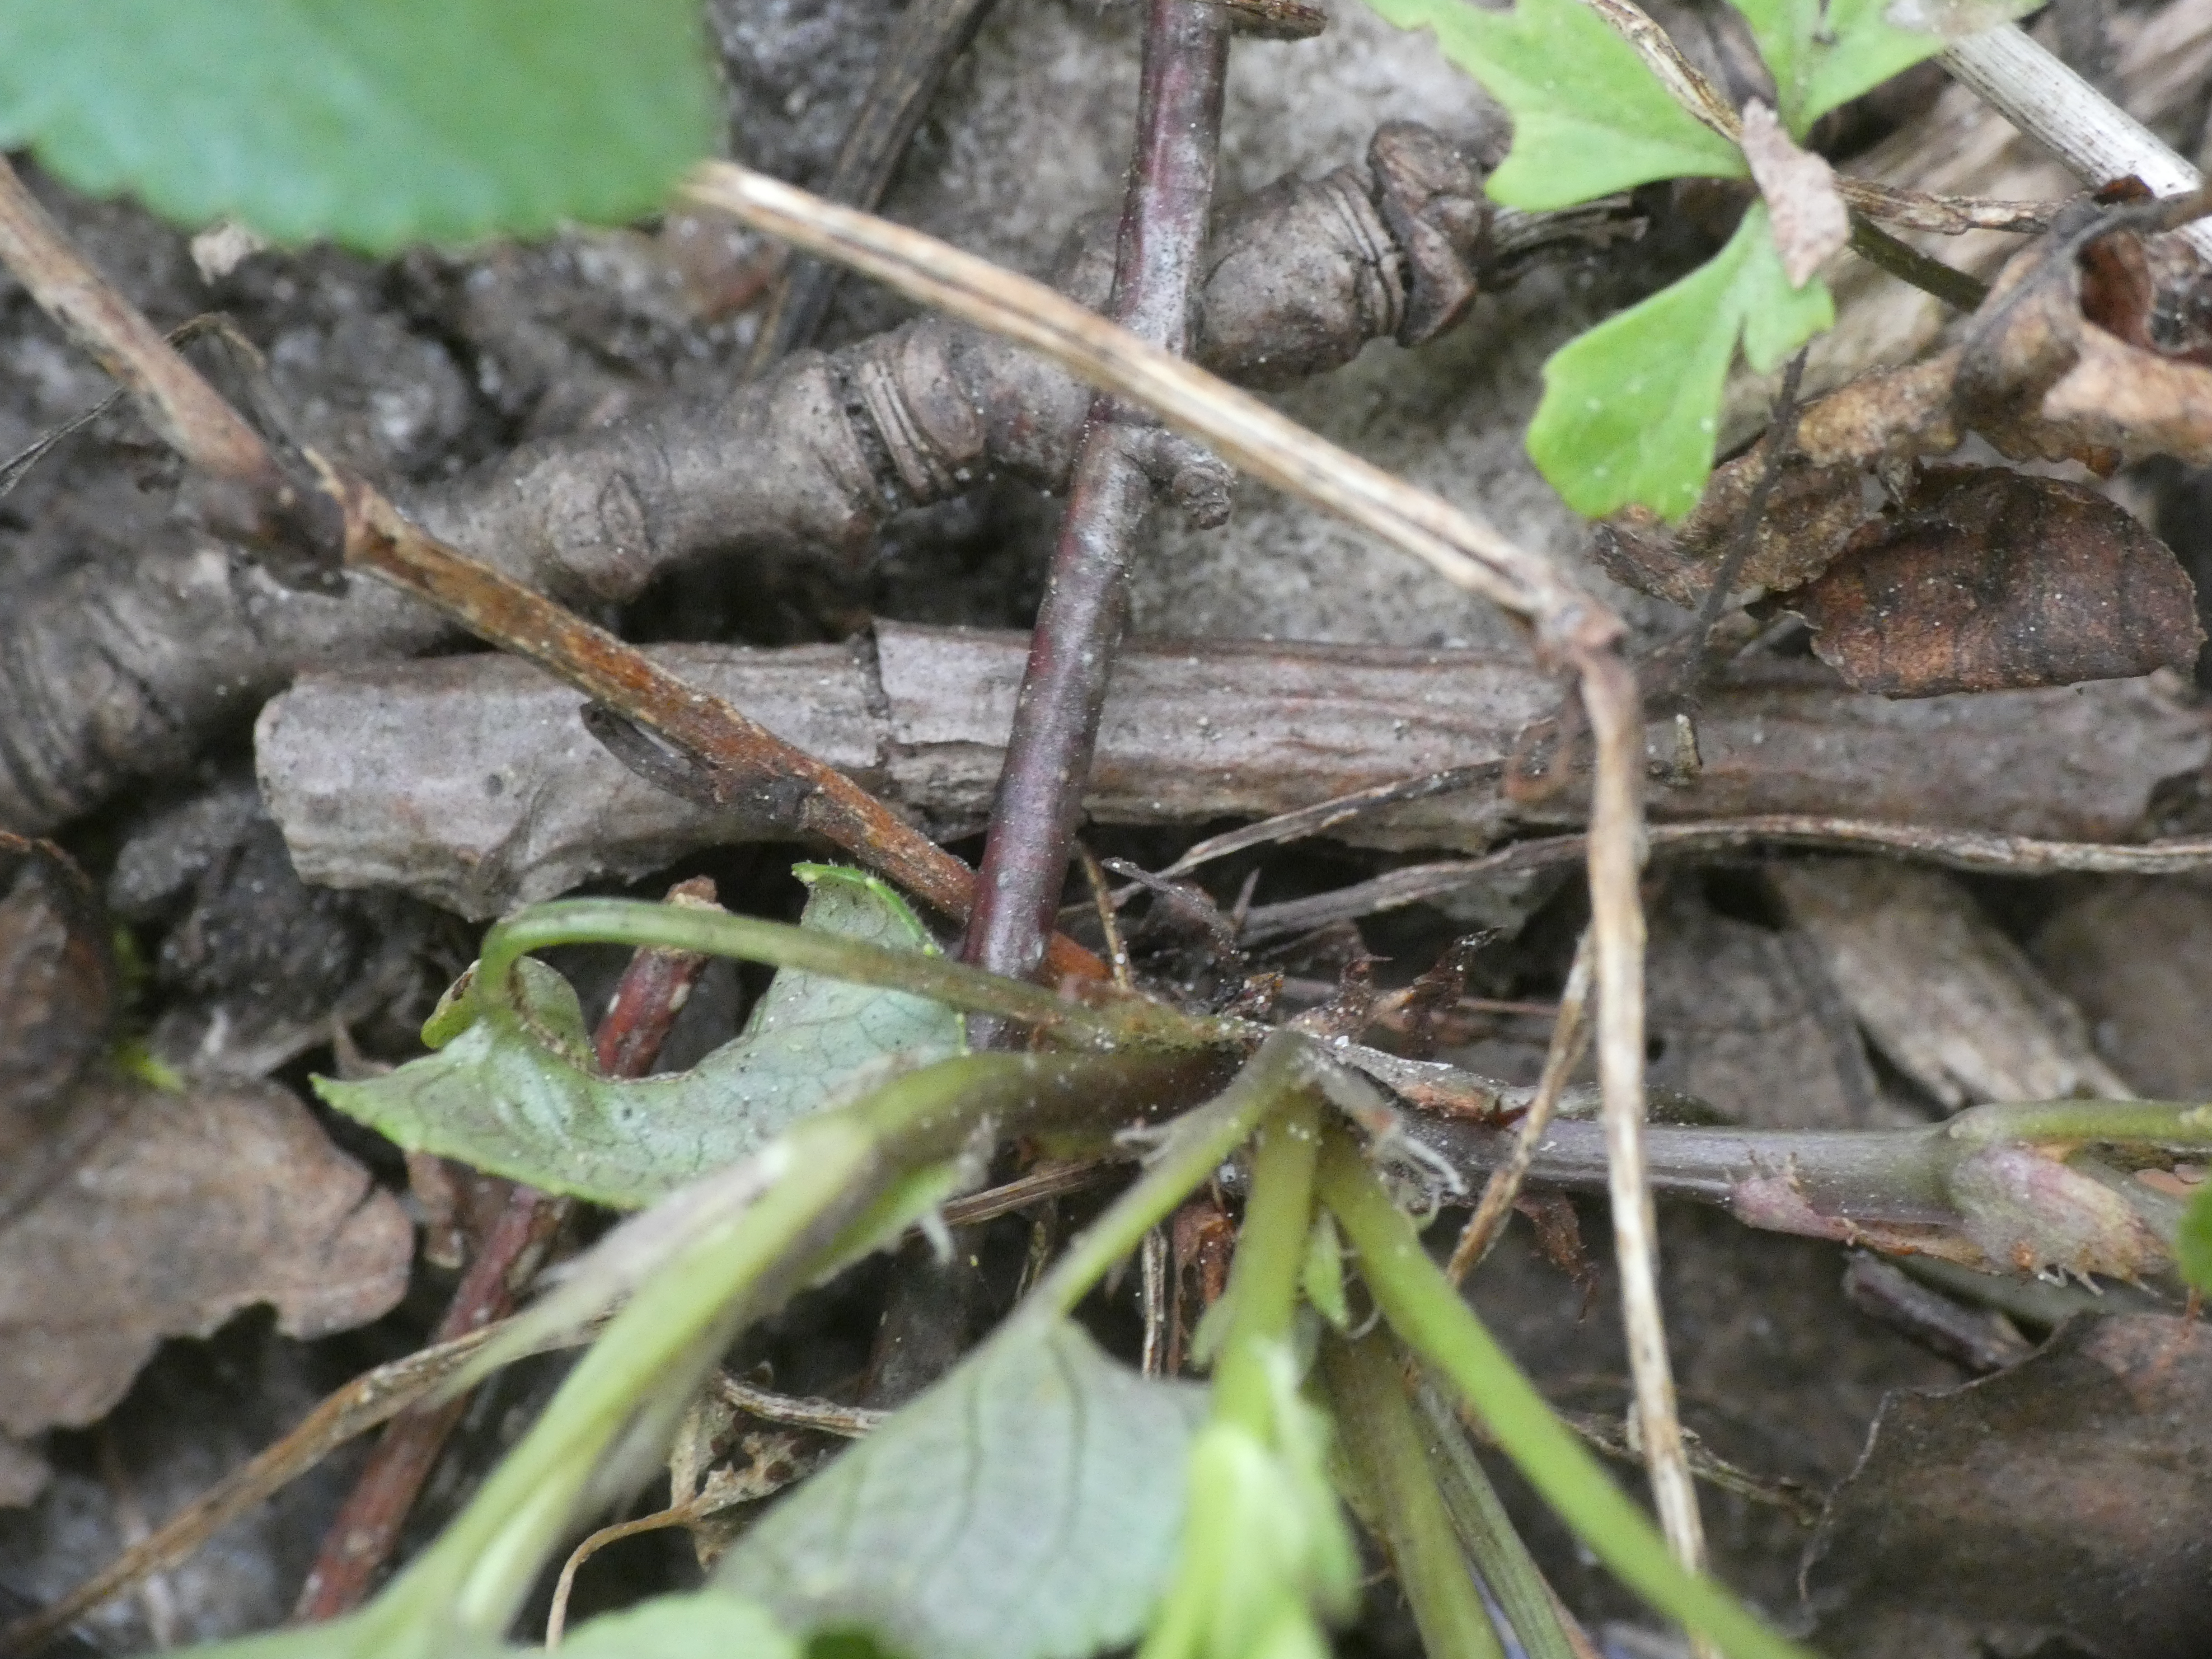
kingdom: Plantae
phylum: Tracheophyta
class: Magnoliopsida
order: Malpighiales
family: Violaceae
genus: Viola
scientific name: Viola riviniana
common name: Krat-viol
